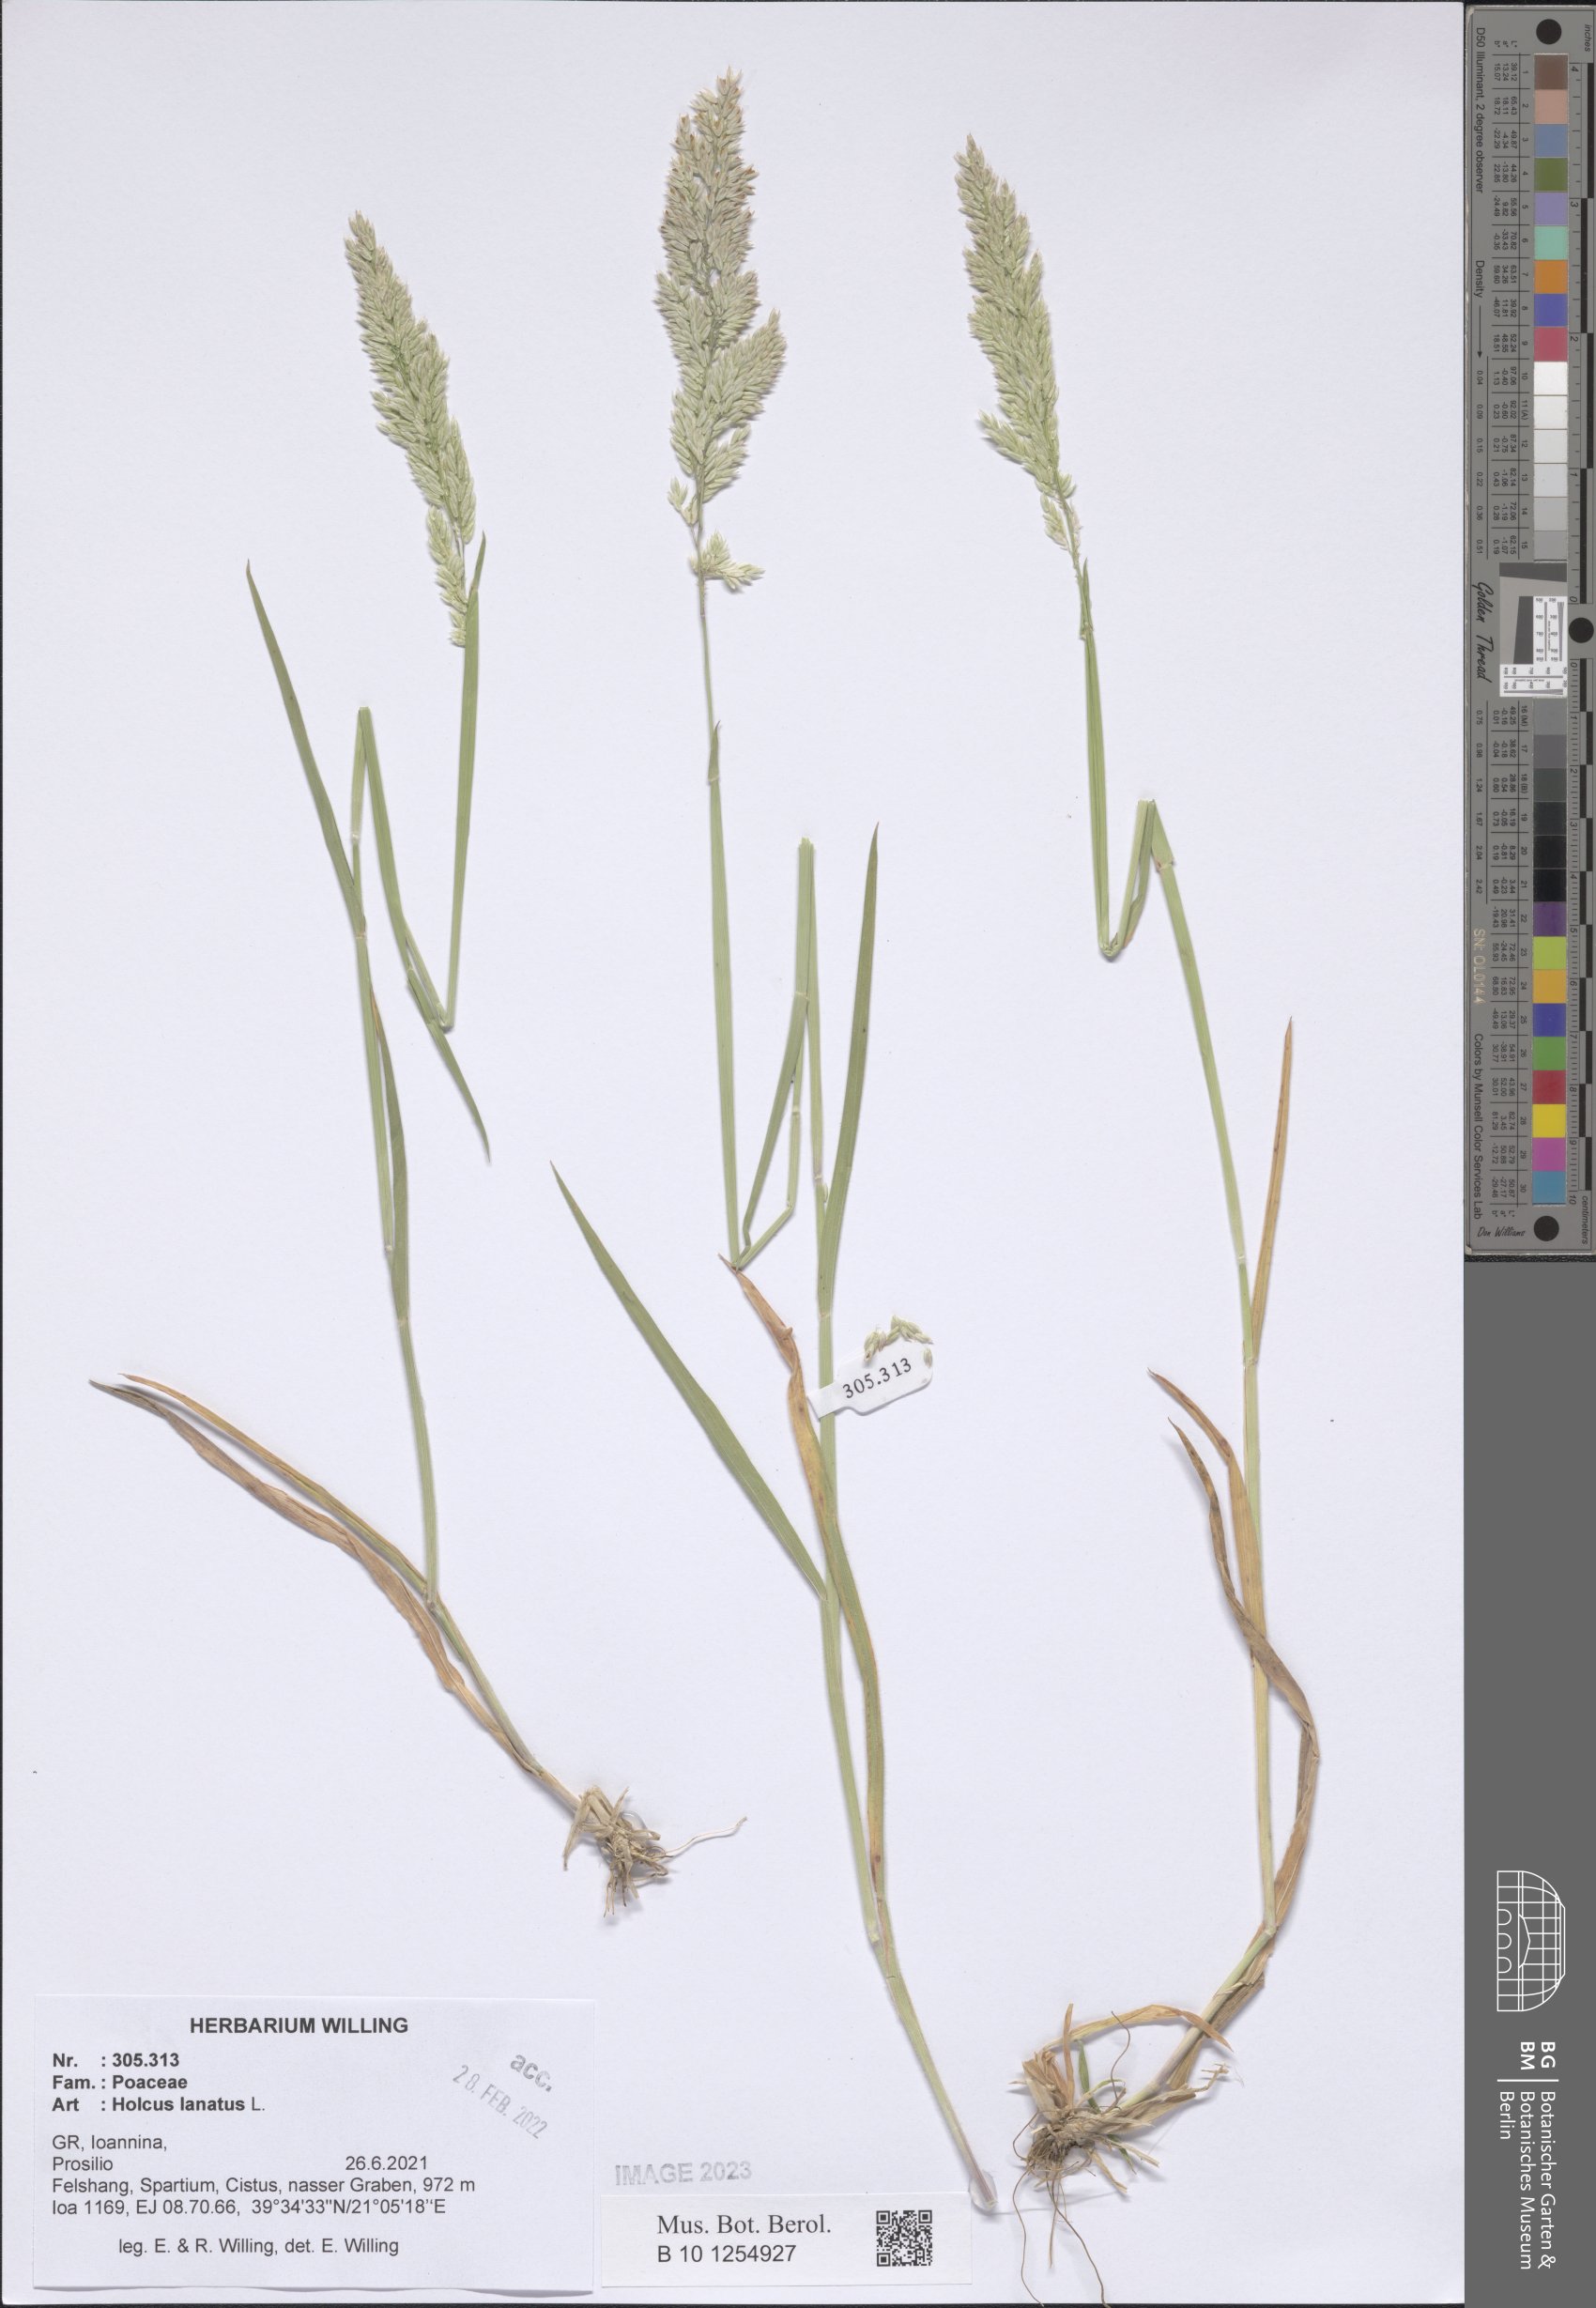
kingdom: Plantae
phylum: Tracheophyta
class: Liliopsida
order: Poales
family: Poaceae
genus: Holcus
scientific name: Holcus lanatus
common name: Yorkshire-fog
